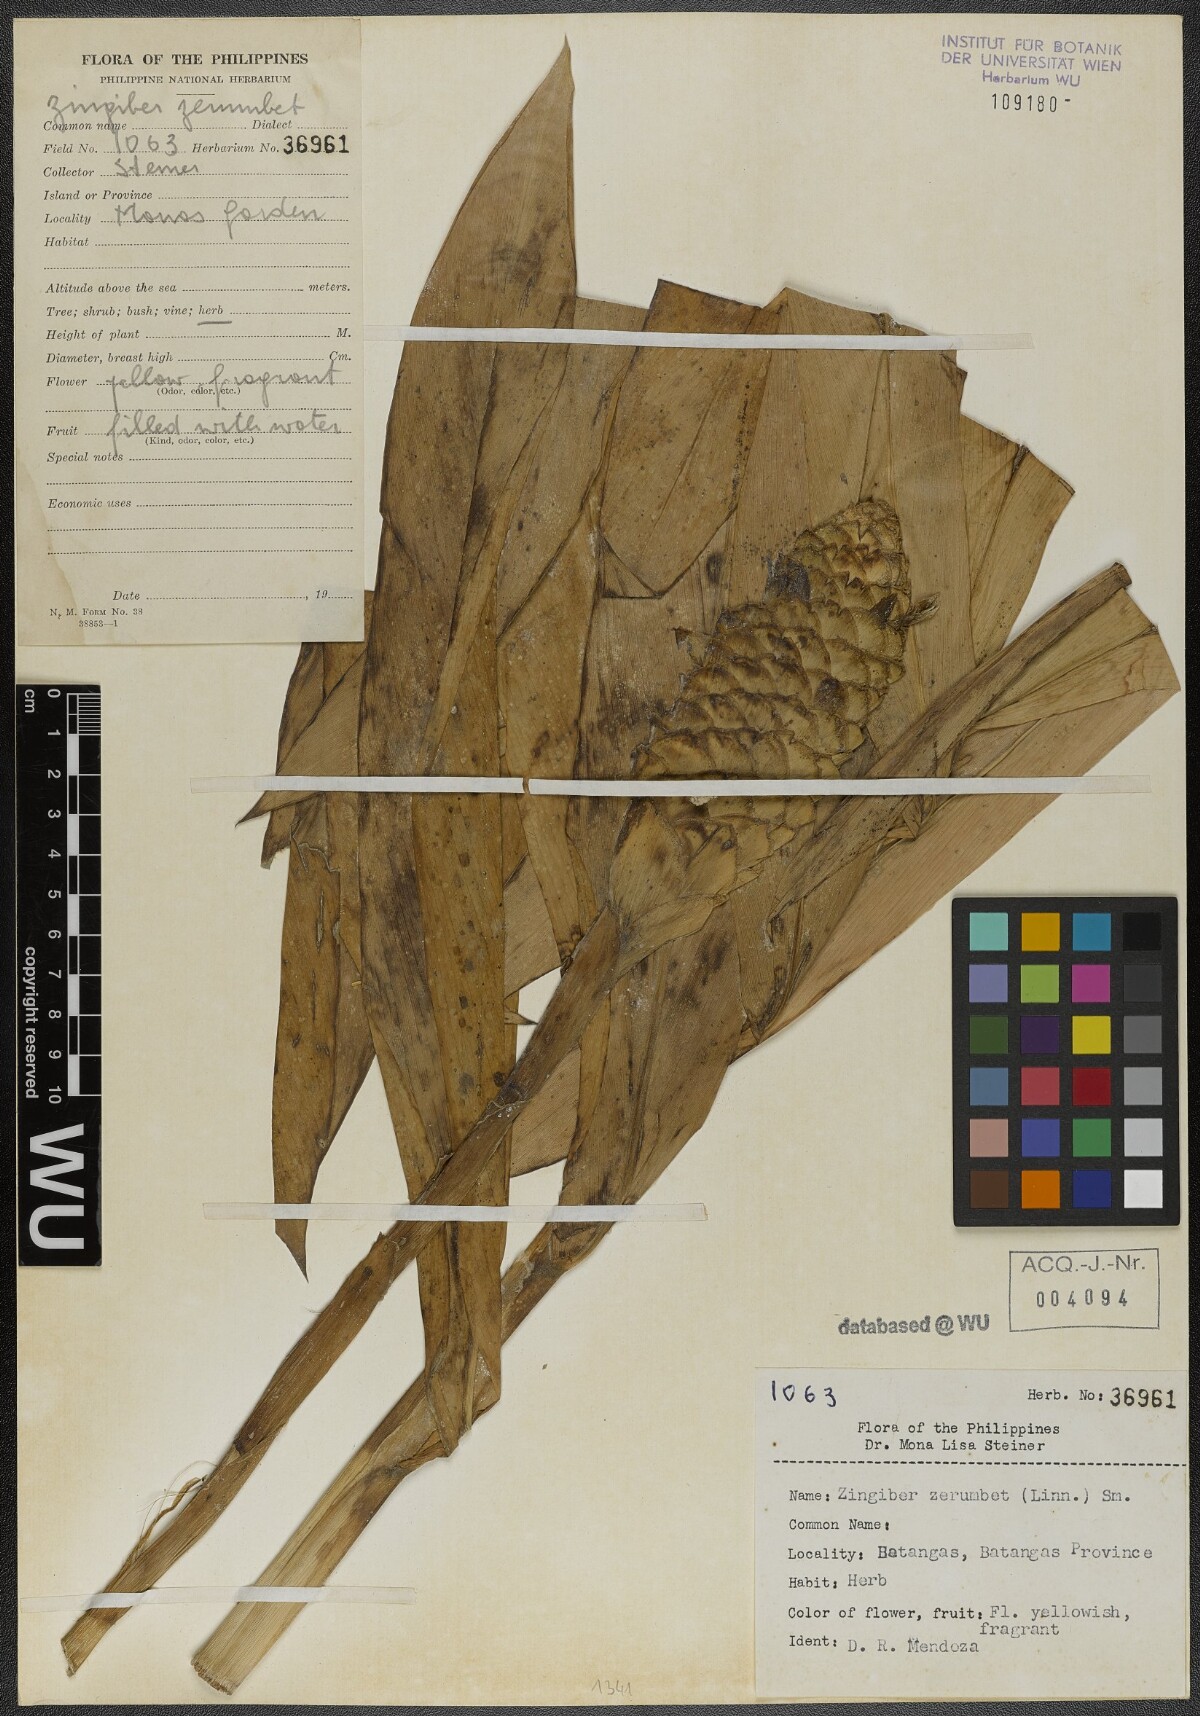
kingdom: Plantae
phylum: Tracheophyta
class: Liliopsida
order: Zingiberales
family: Zingiberaceae
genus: Zingiber
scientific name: Zingiber zerumbet
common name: Bitter ginger
